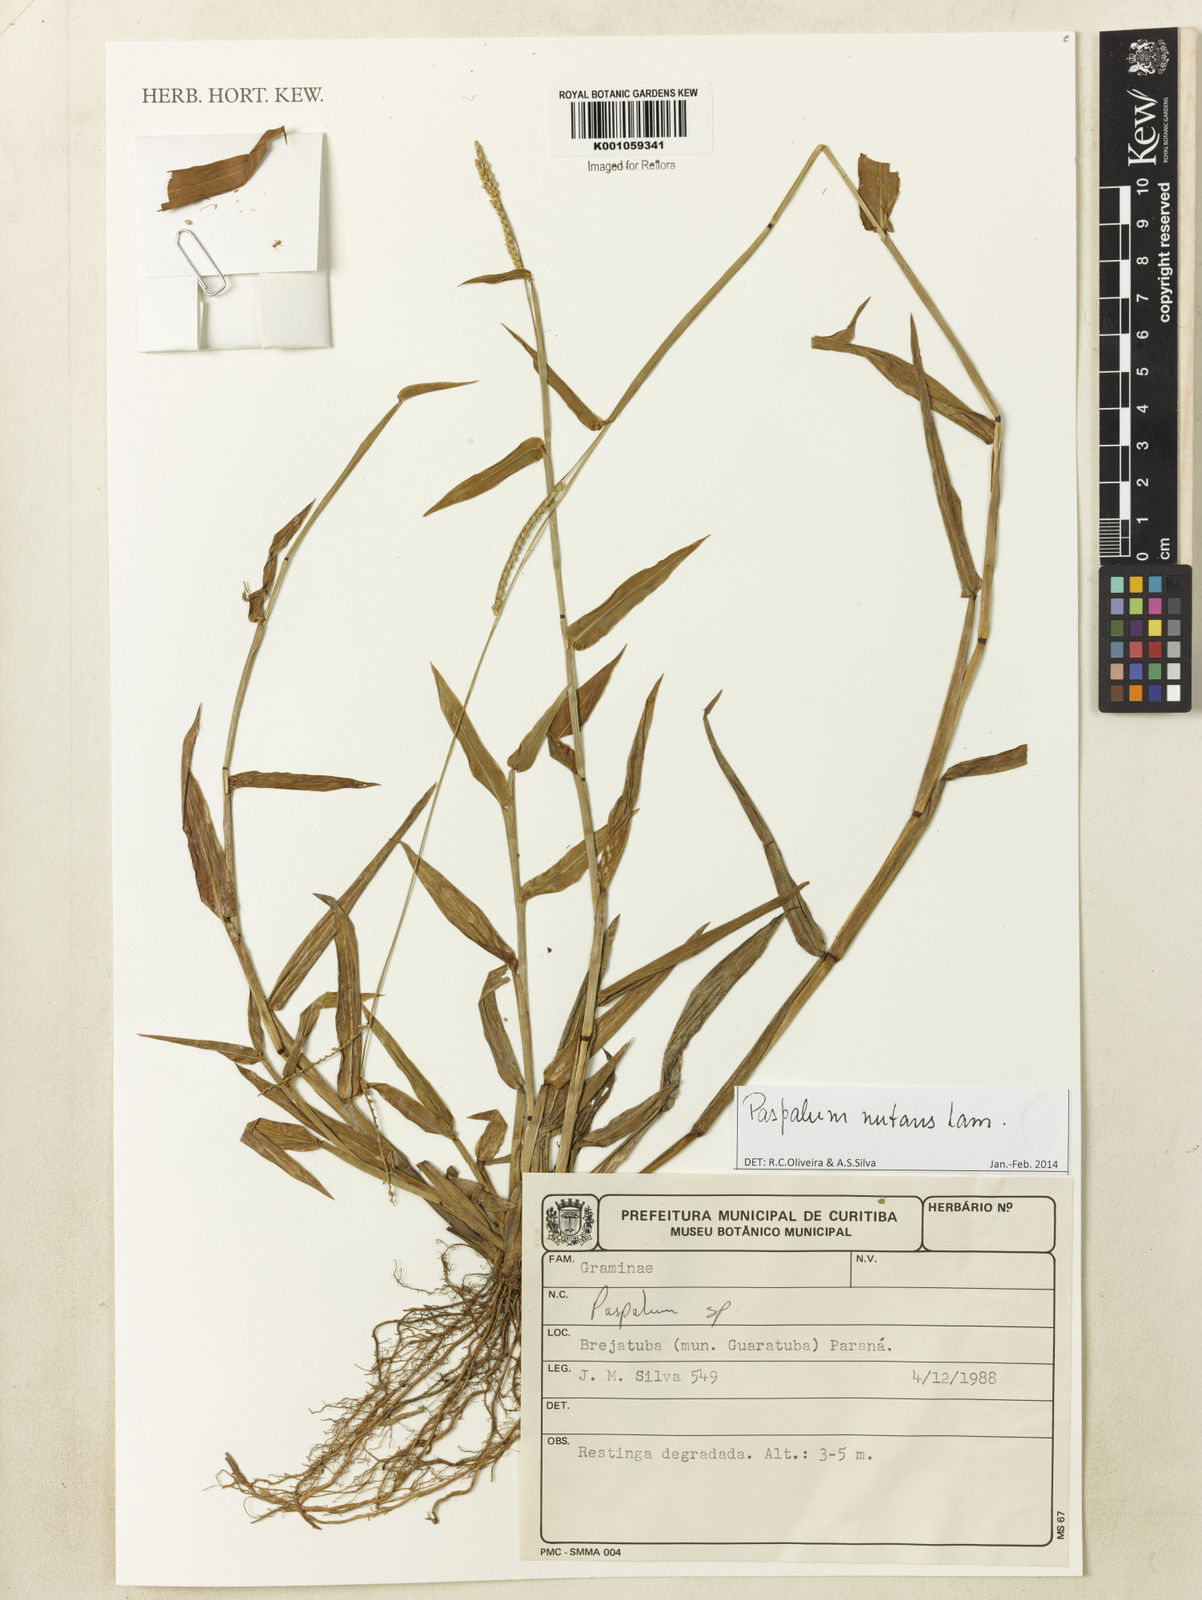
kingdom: Plantae
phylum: Tracheophyta
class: Liliopsida
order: Poales
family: Poaceae
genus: Paspalum
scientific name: Paspalum nutans
